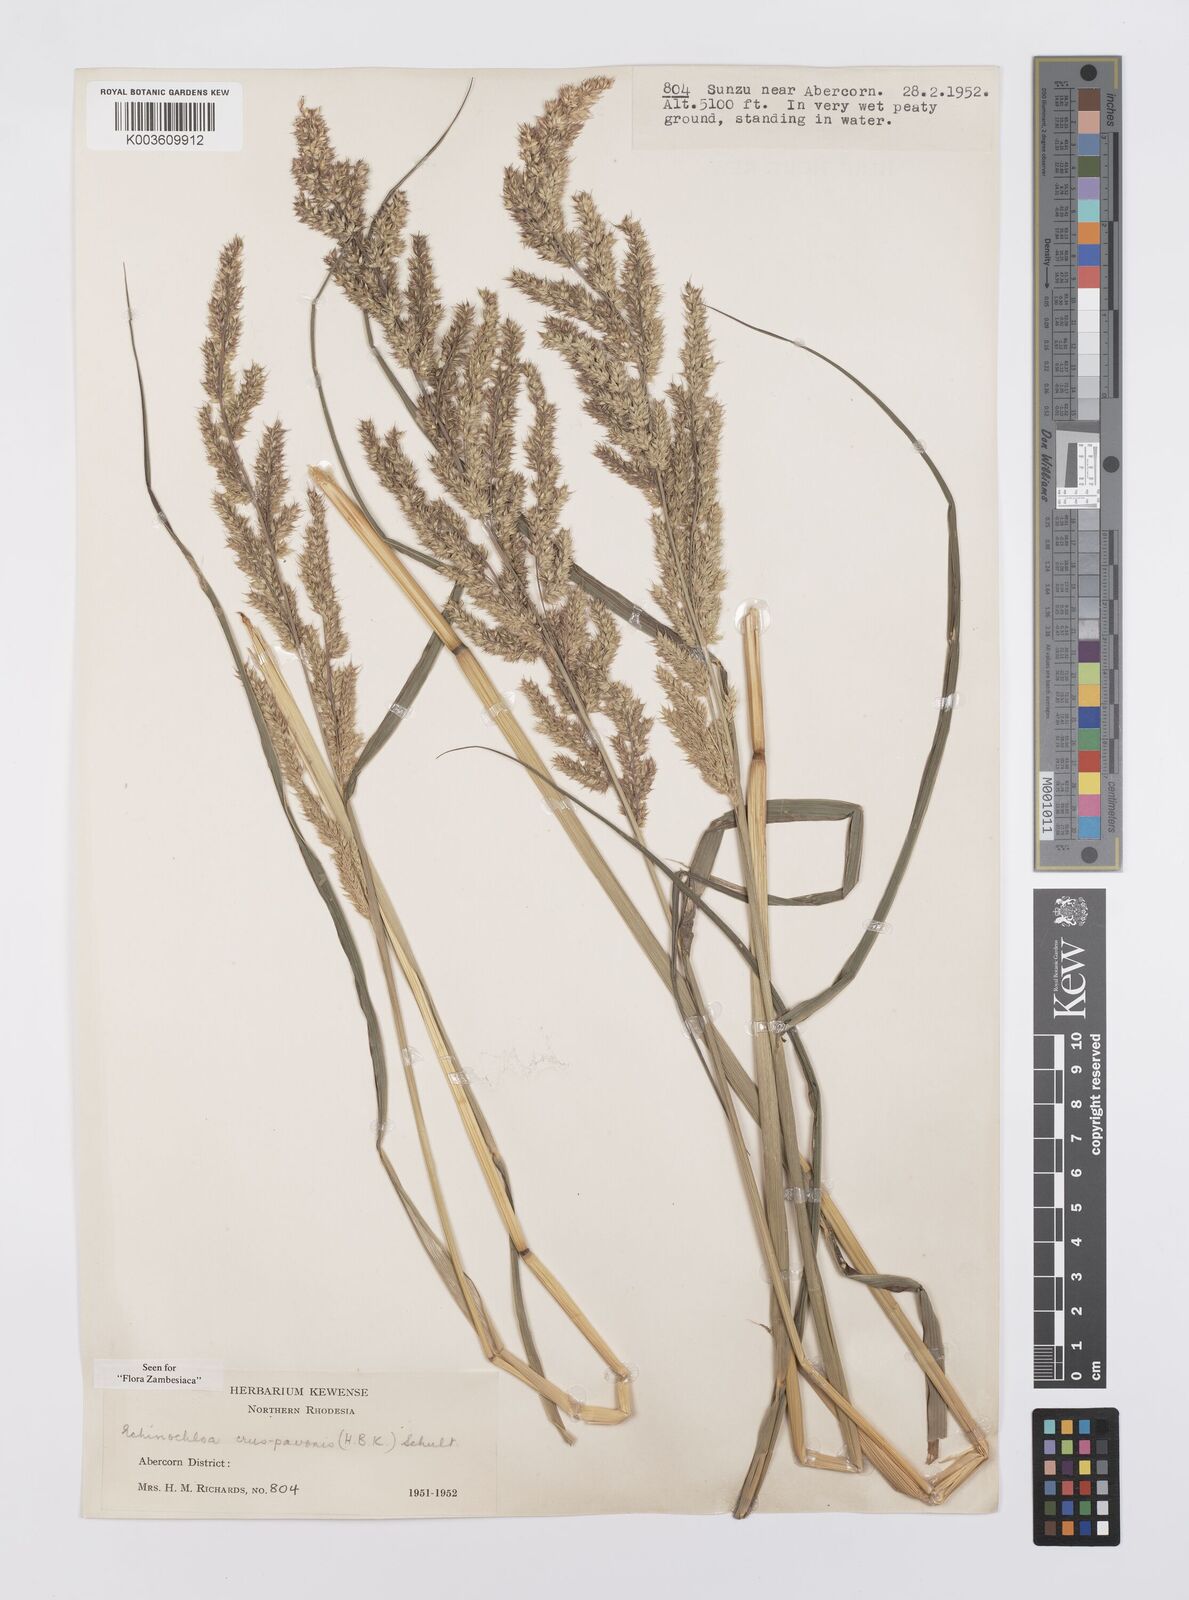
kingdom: Plantae
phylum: Tracheophyta
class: Liliopsida
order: Poales
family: Poaceae
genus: Echinochloa
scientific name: Echinochloa crus-pavonis
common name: Gulf cockspur grass
